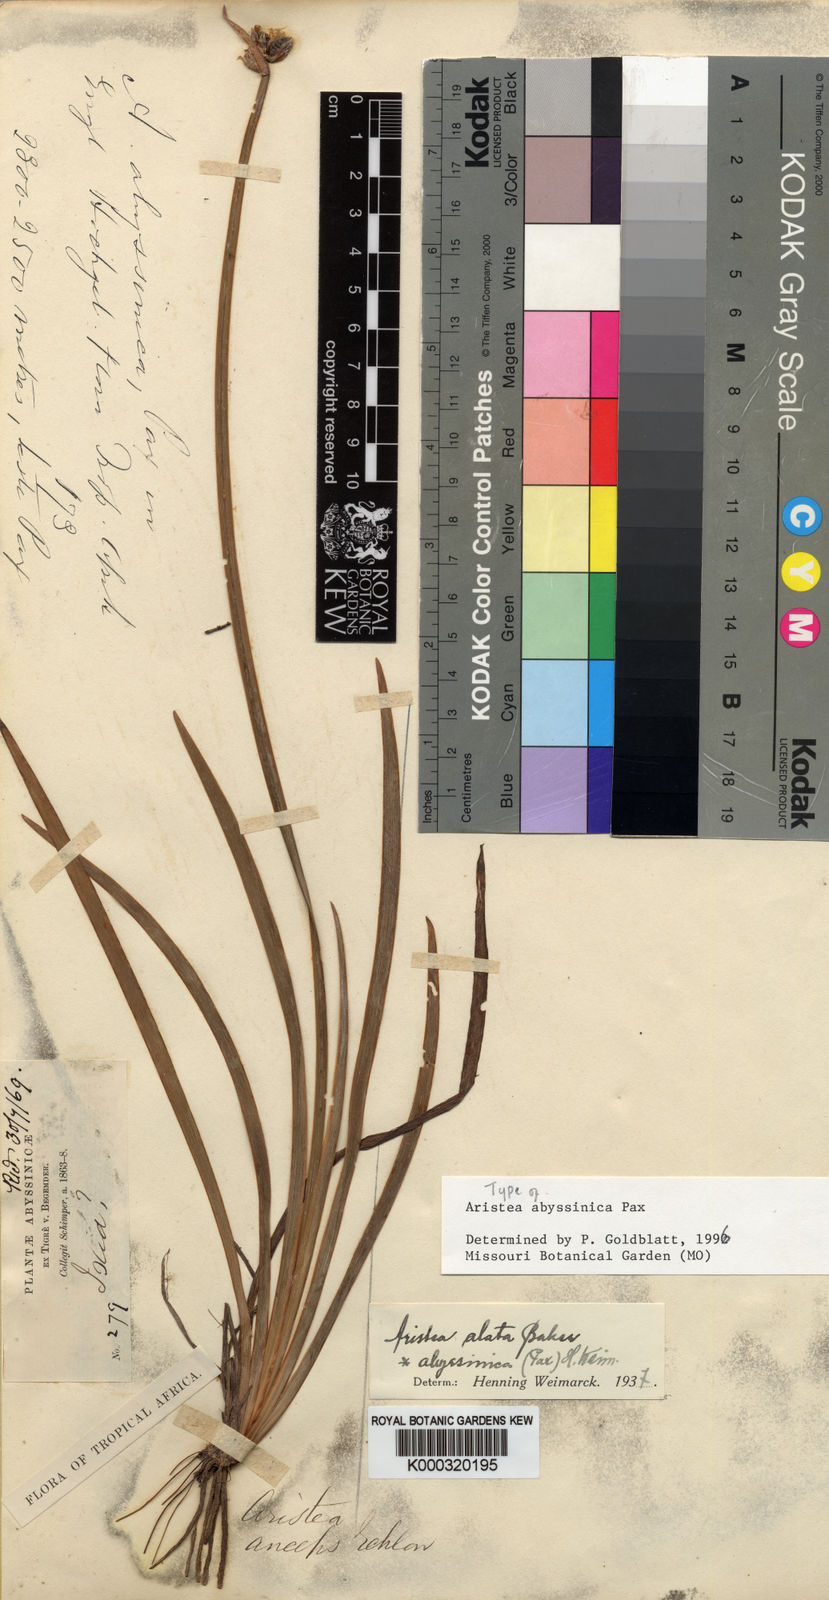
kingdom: Plantae
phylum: Tracheophyta
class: Liliopsida
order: Asparagales
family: Iridaceae
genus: Aristea
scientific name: Aristea abyssinica
